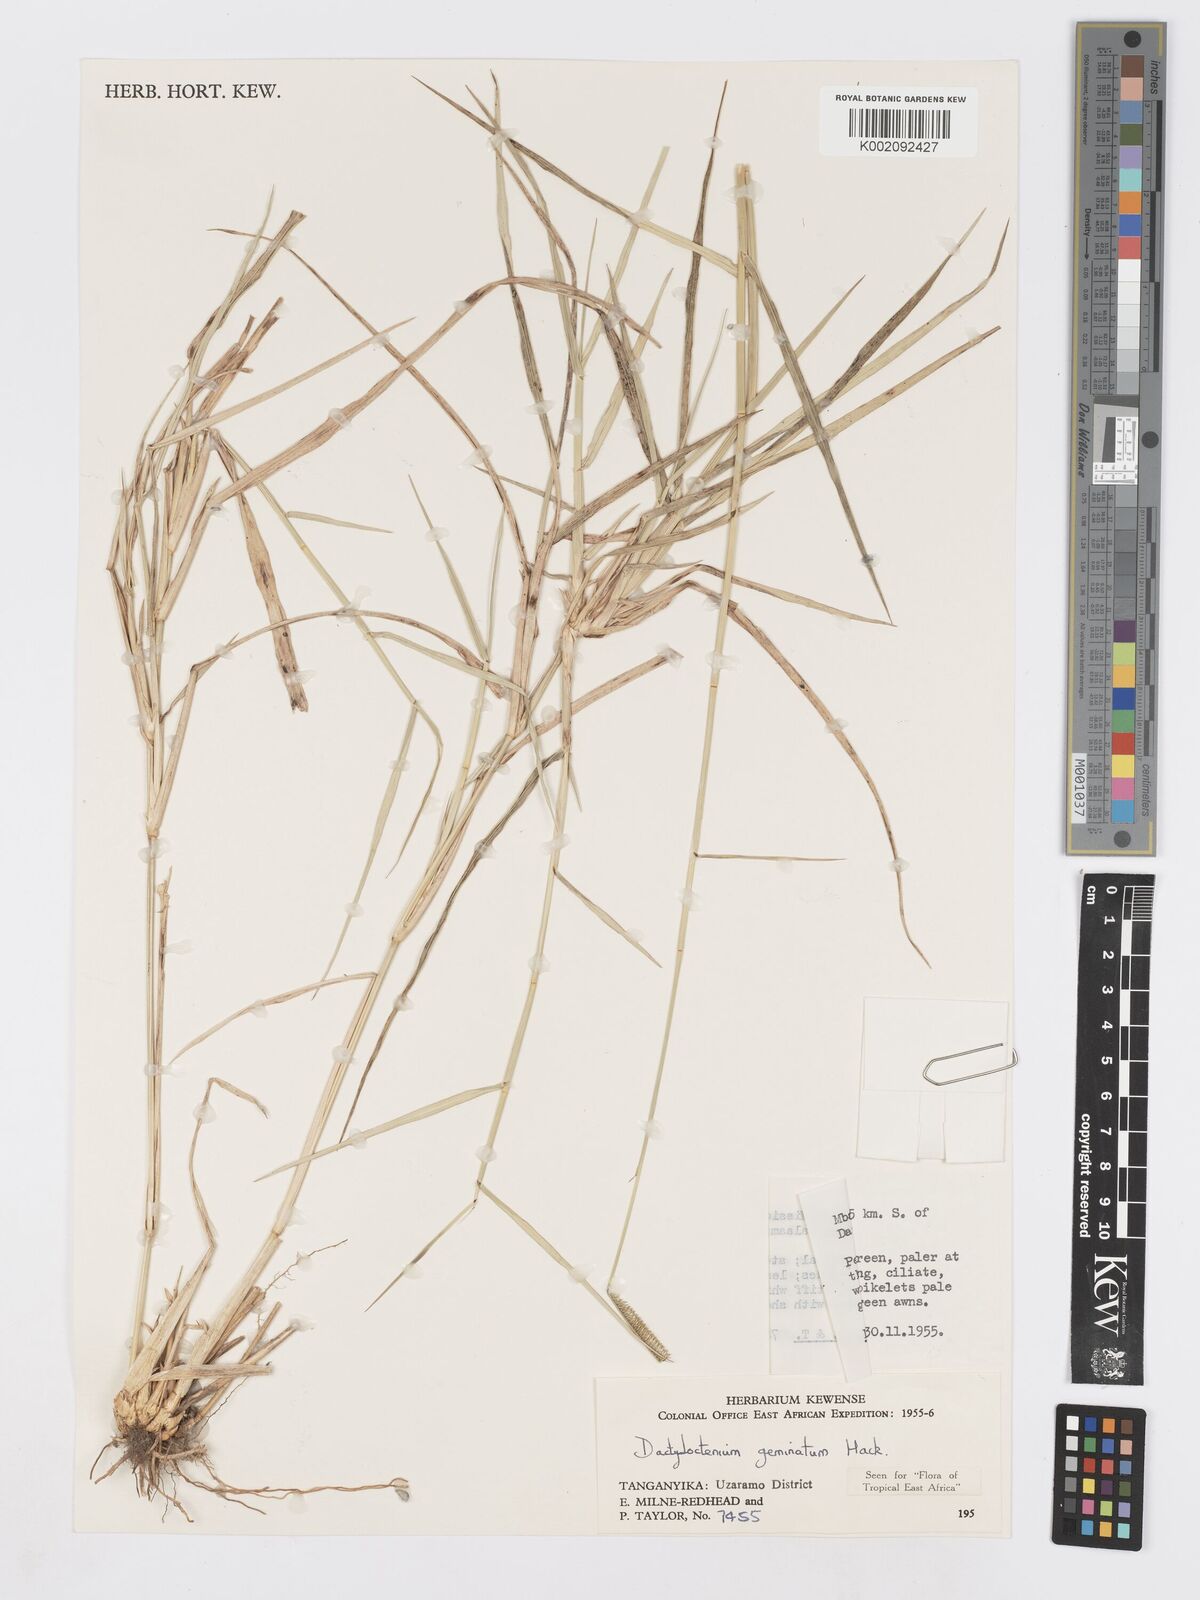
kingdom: Plantae
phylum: Tracheophyta
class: Liliopsida
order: Poales
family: Poaceae
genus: Dactyloctenium
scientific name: Dactyloctenium geminatum
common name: Crowsfoot grass
